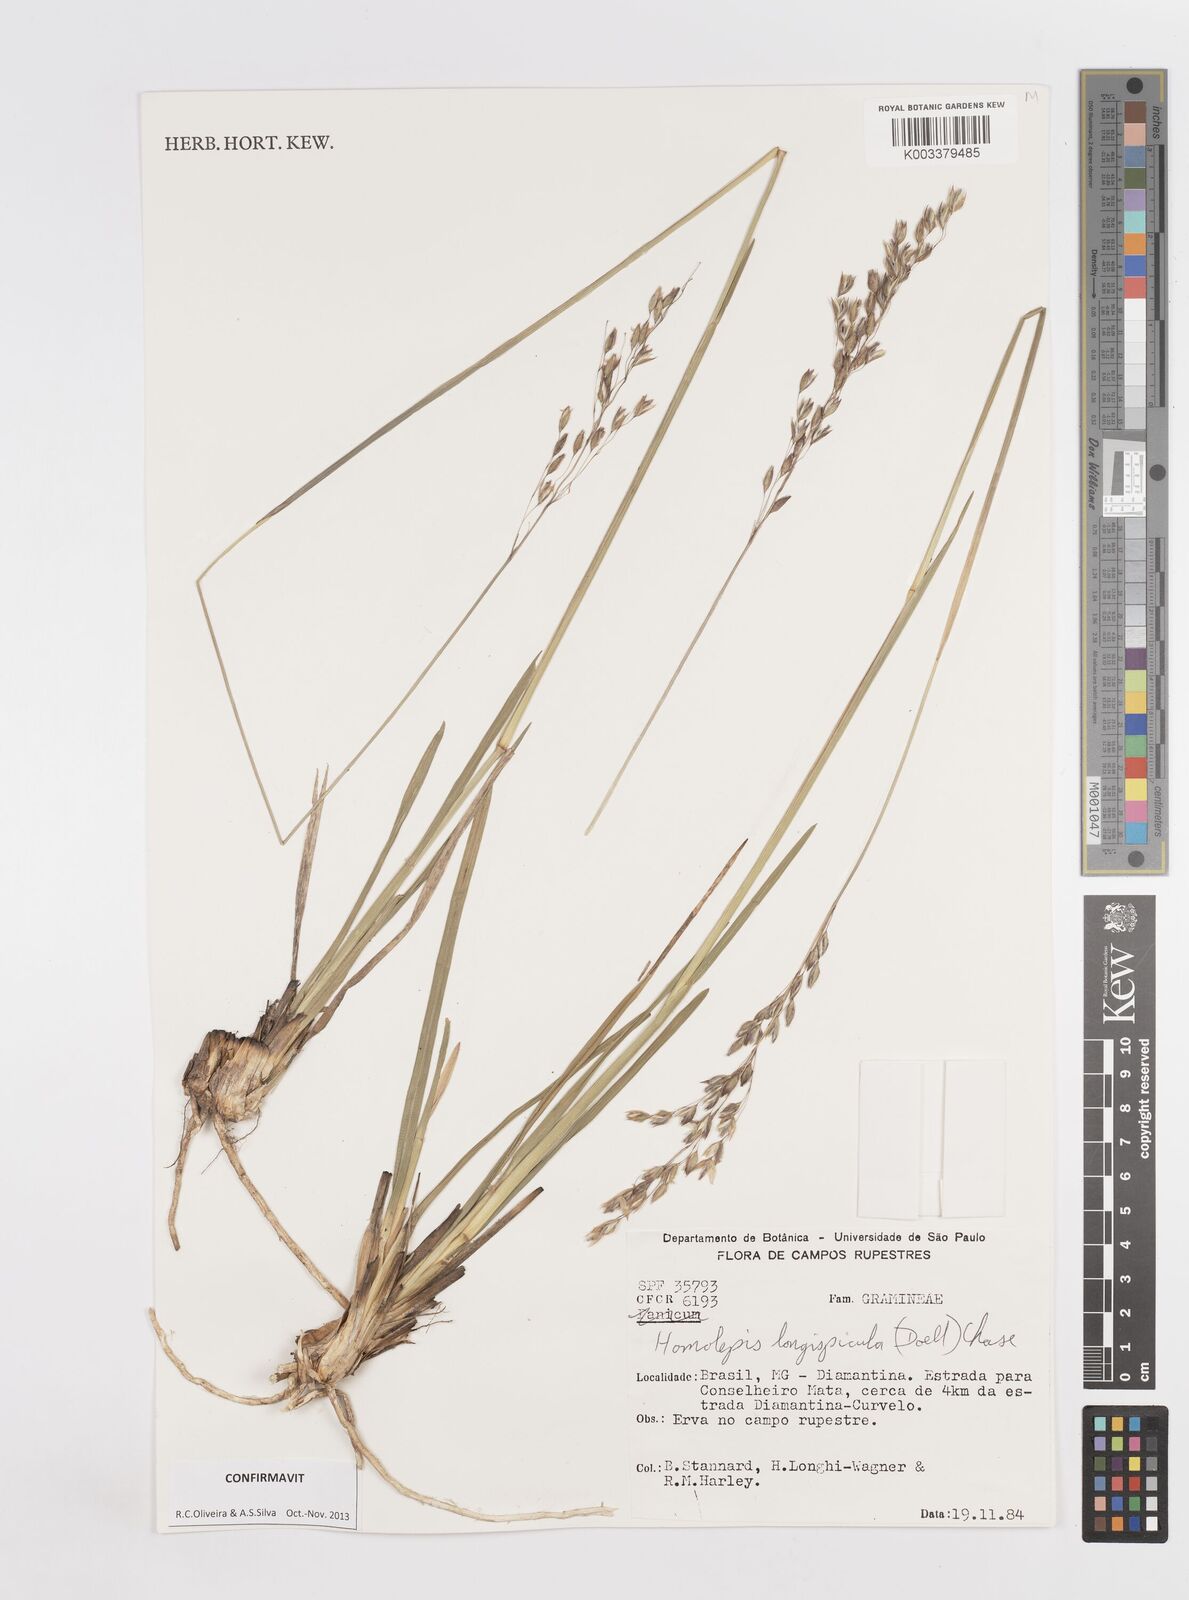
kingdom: Plantae
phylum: Tracheophyta
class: Liliopsida
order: Poales
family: Poaceae
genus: Homolepis
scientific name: Homolepis longispicula
